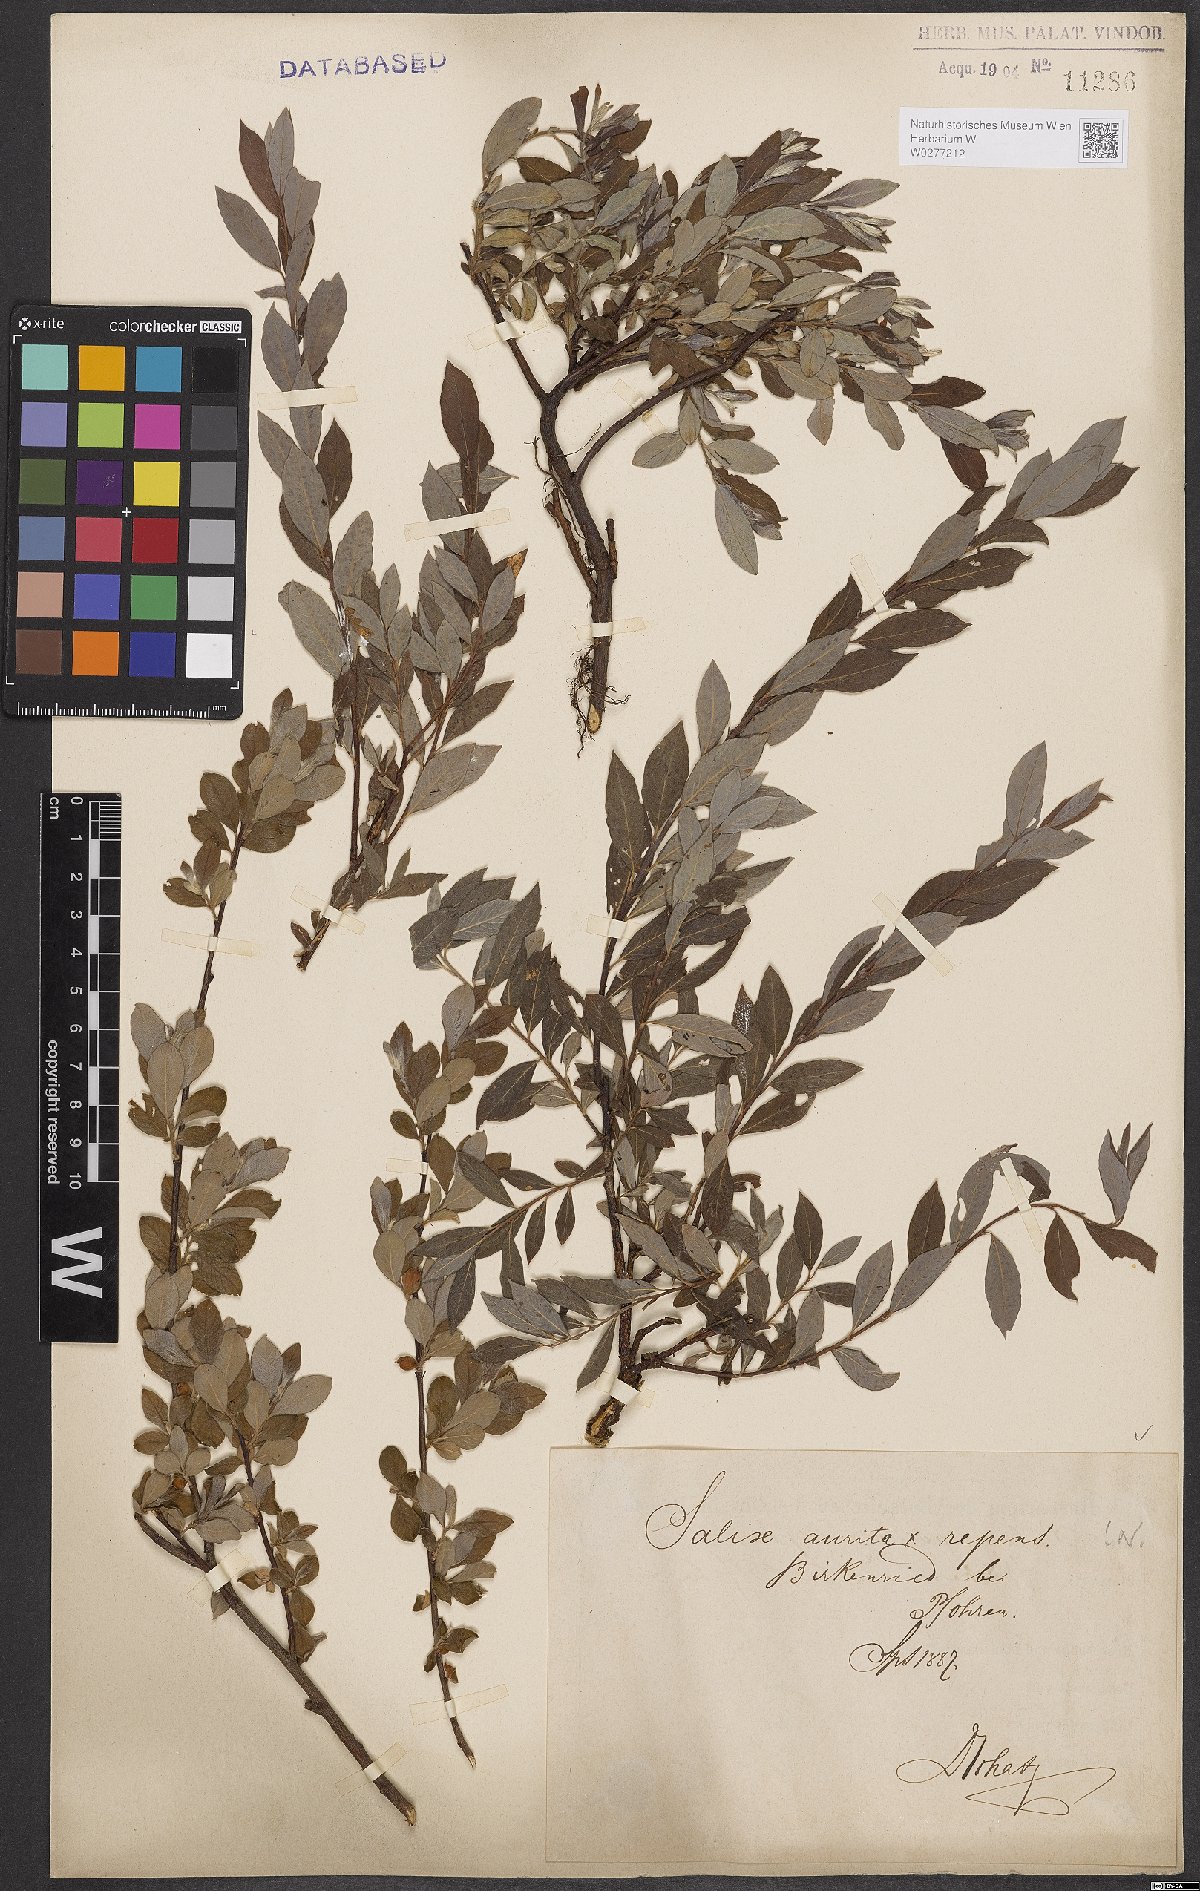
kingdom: Plantae
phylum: Tracheophyta
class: Magnoliopsida
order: Malpighiales
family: Salicaceae
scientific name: Salicaceae
